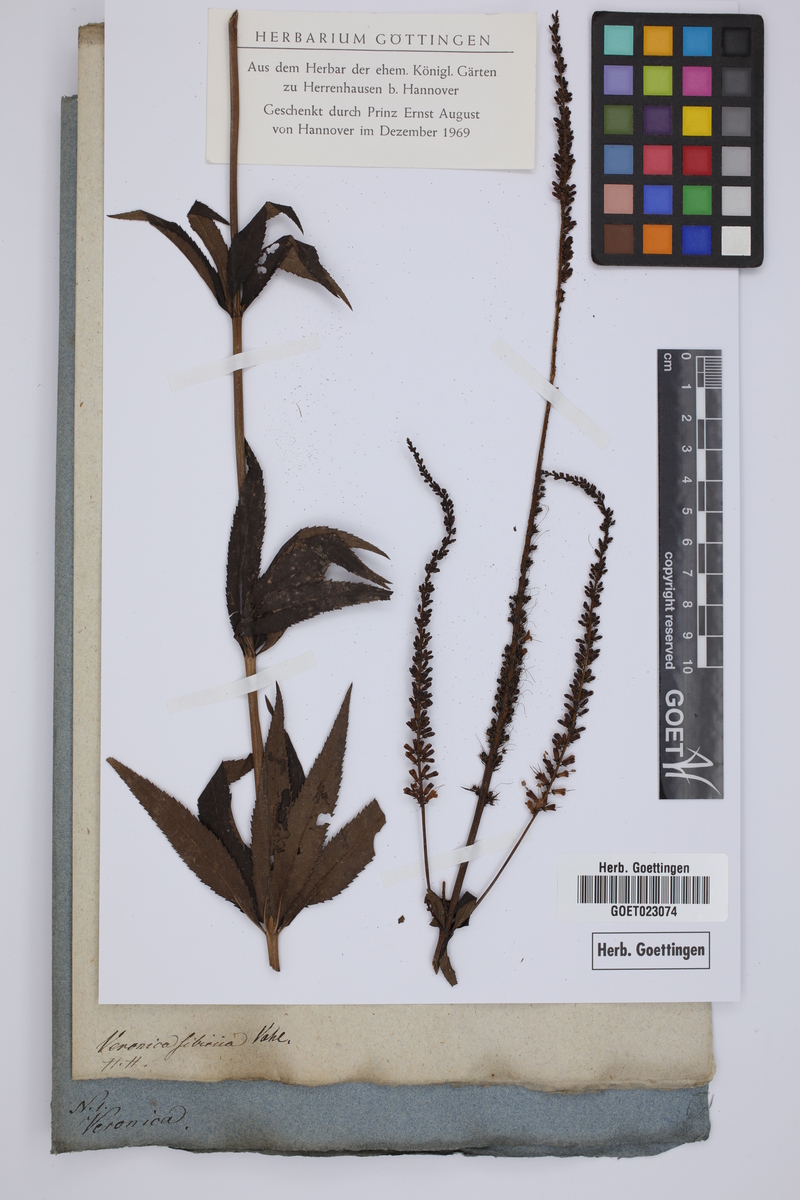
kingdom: Plantae
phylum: Tracheophyta
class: Magnoliopsida
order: Lamiales
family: Plantaginaceae
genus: Veronicastrum
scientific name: Veronicastrum sibiricum
